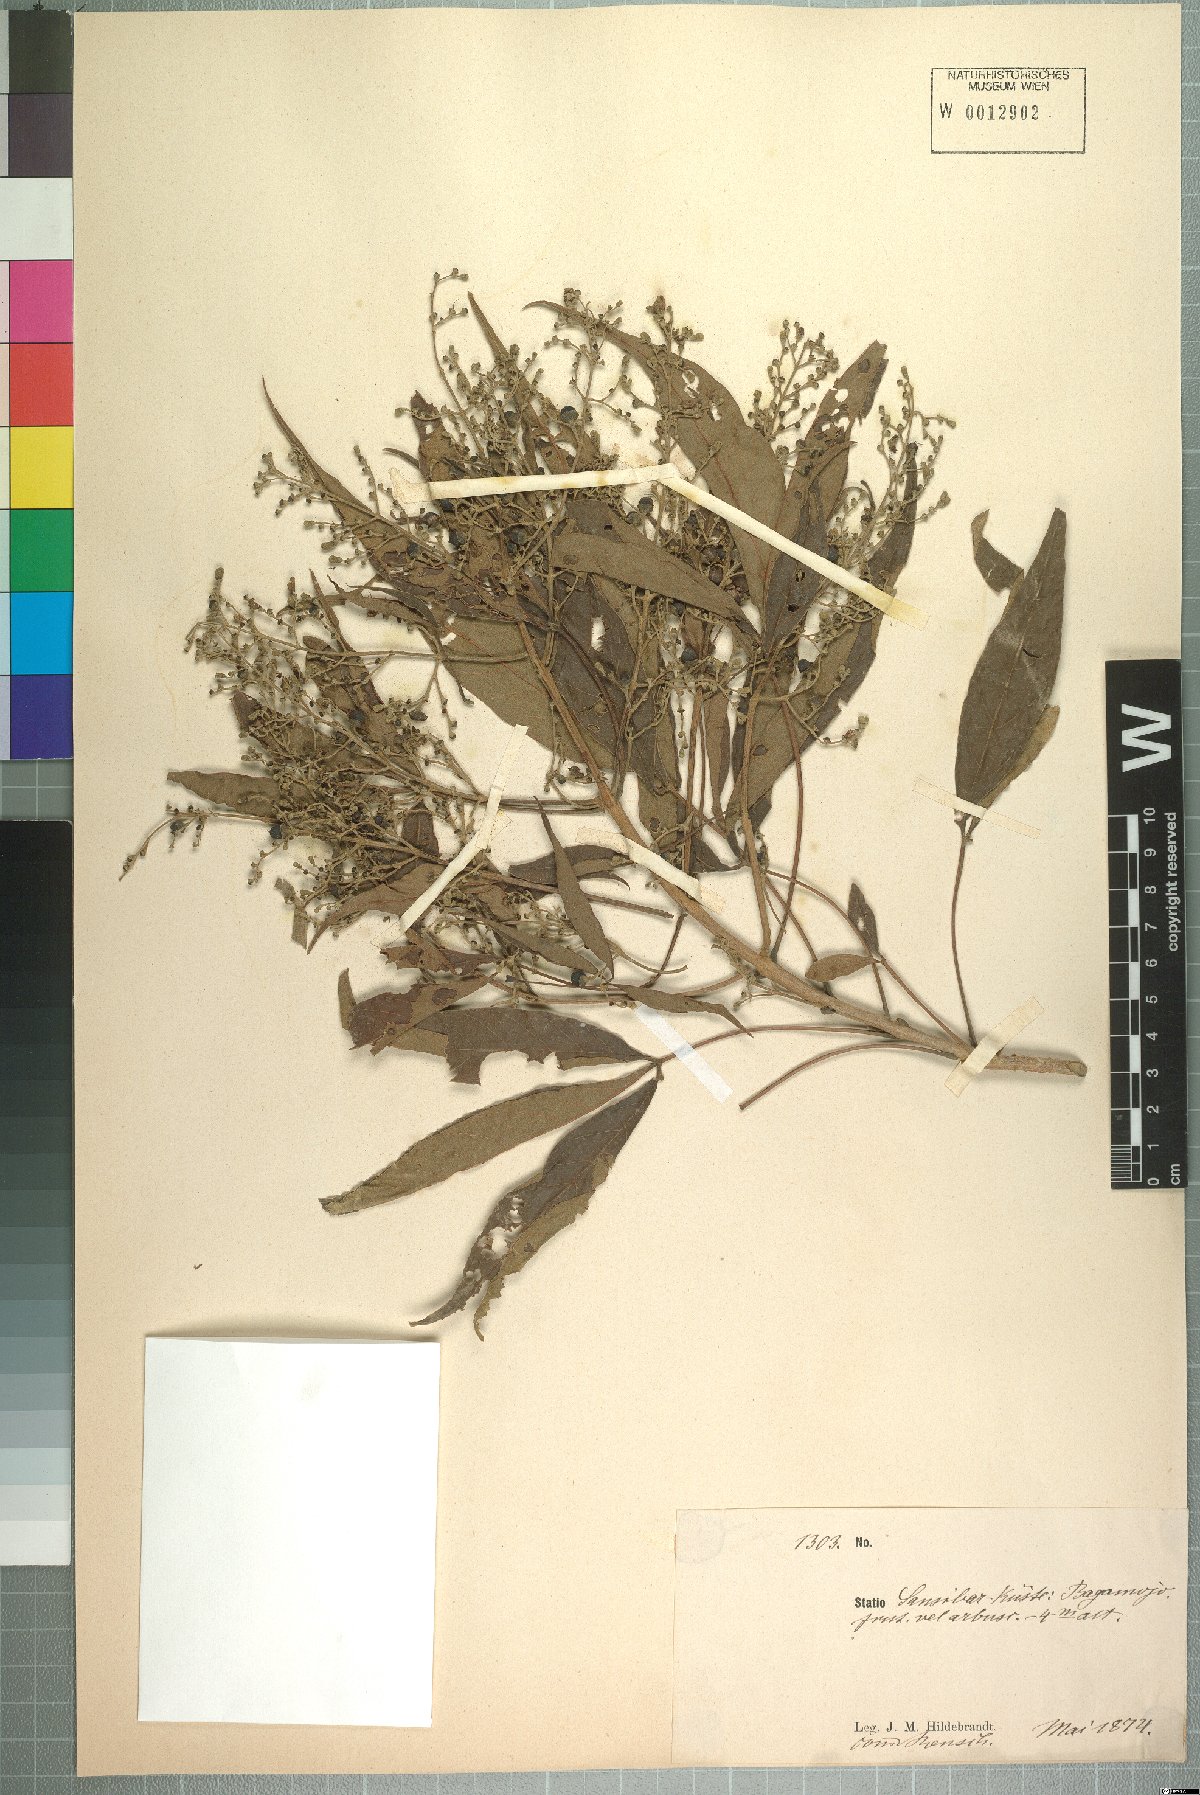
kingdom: Plantae
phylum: Tracheophyta
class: Magnoliopsida
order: Lamiales
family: Lamiaceae
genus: Vitex
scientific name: Vitex zanzibarensis
